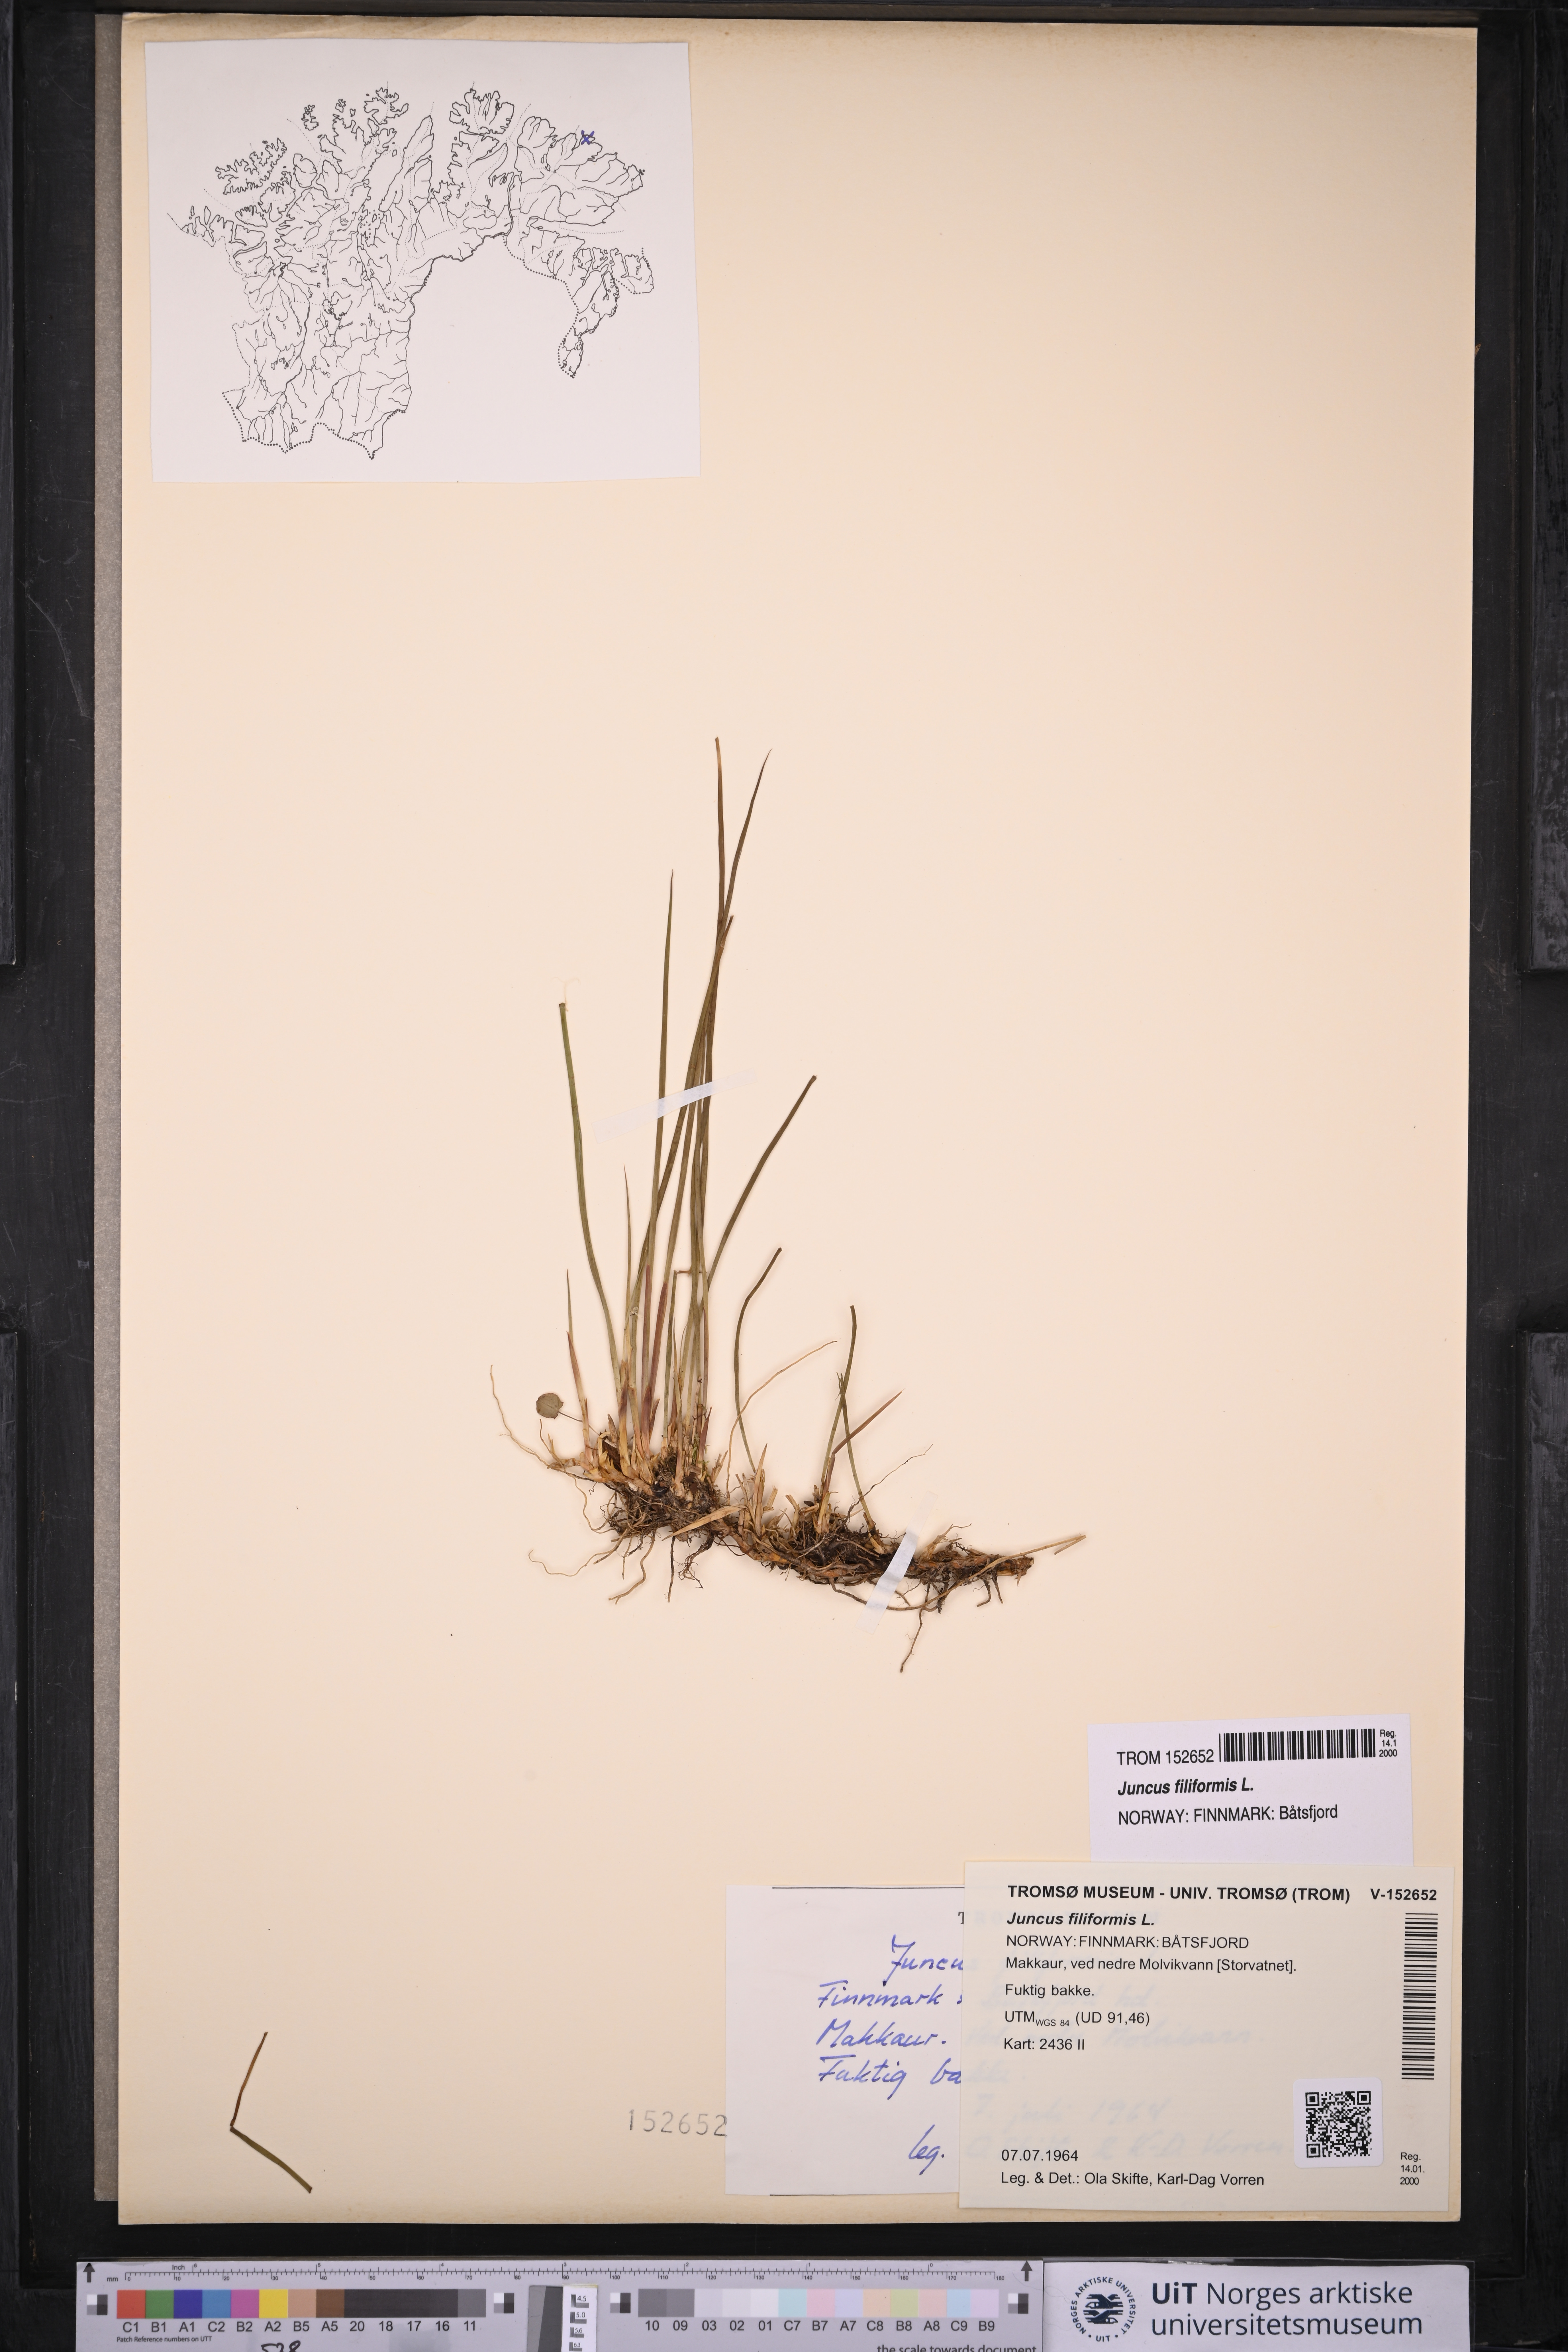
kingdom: Plantae
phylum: Tracheophyta
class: Liliopsida
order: Poales
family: Juncaceae
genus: Juncus
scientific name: Juncus filiformis
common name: Thread rush
